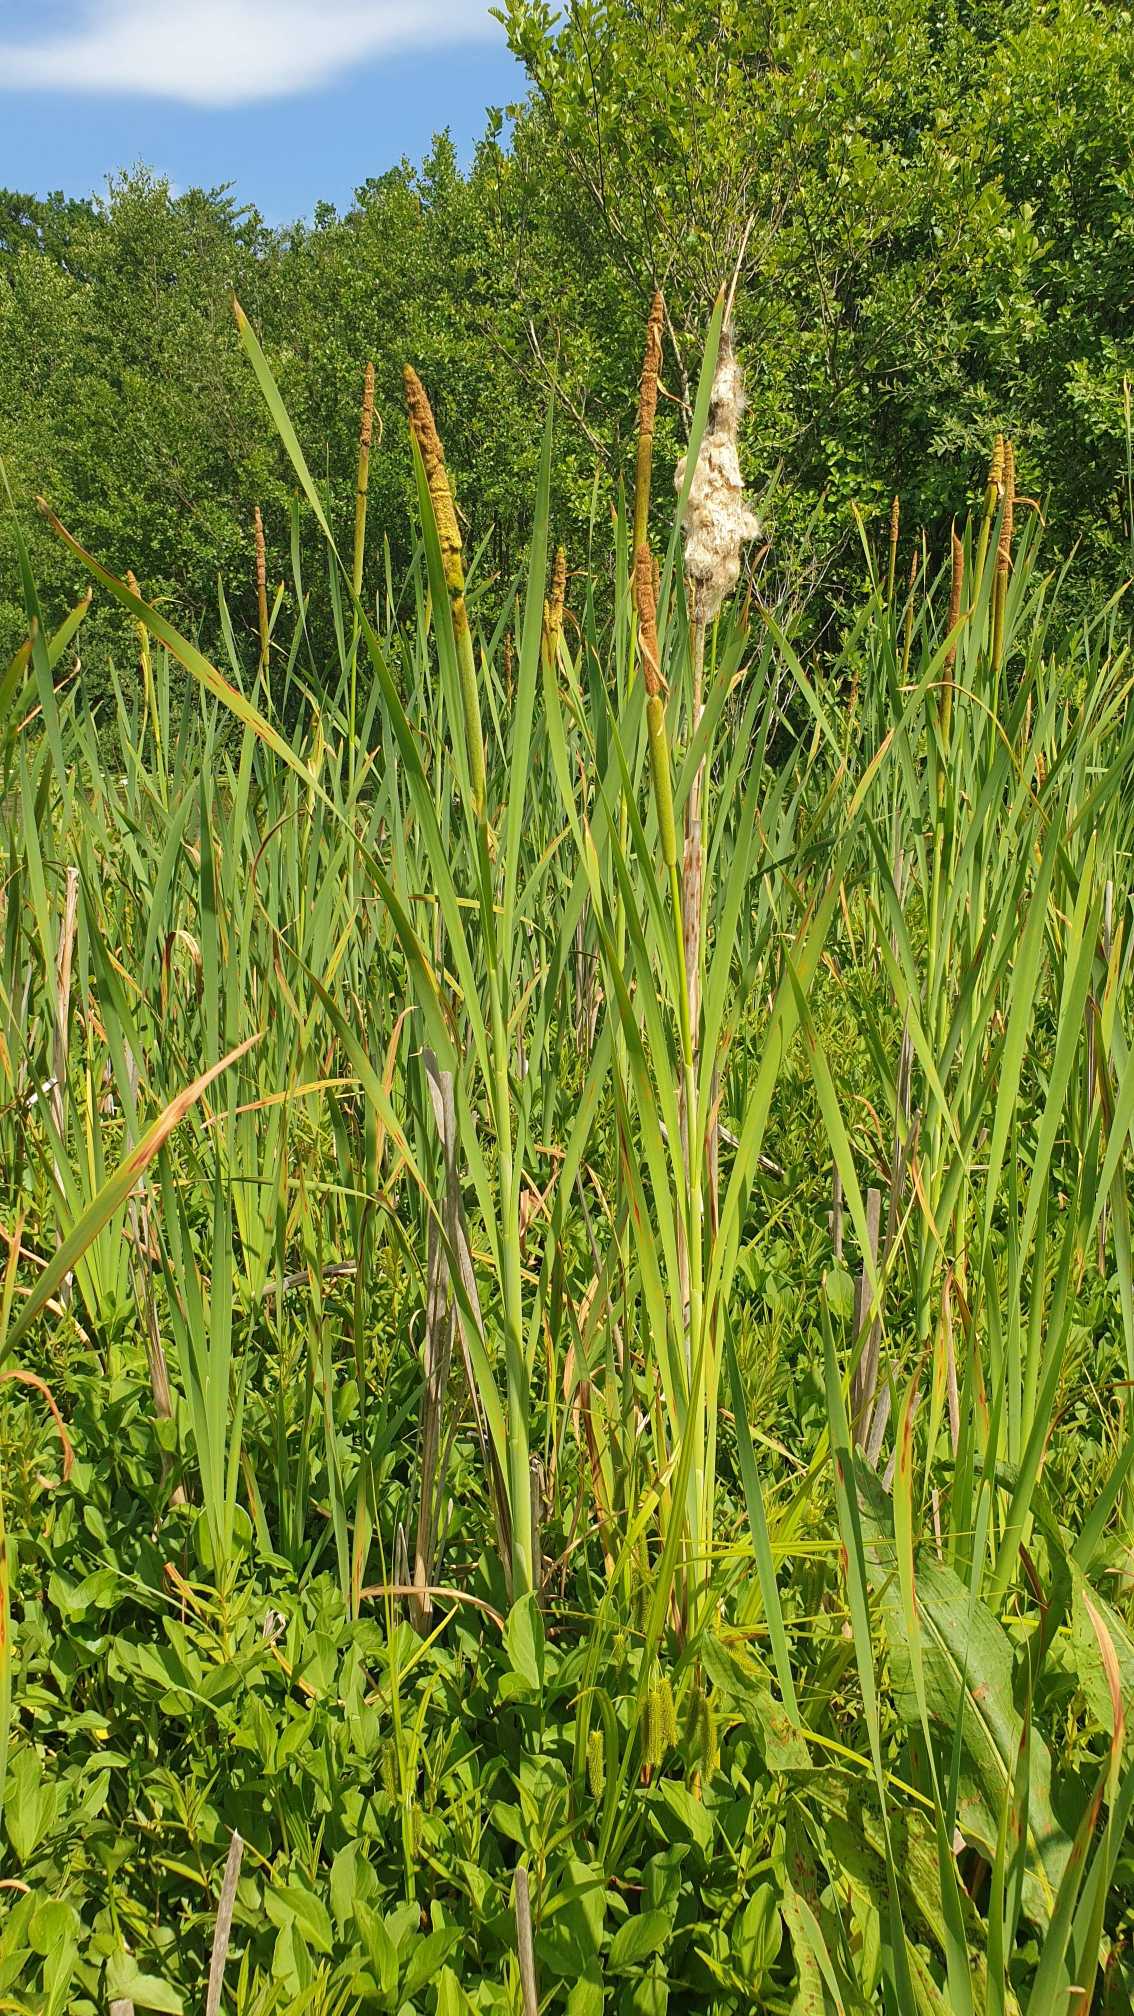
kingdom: Plantae
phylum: Tracheophyta
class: Liliopsida
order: Poales
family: Typhaceae
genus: Typha
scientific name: Typha latifolia
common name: Bredbladet dunhammer
